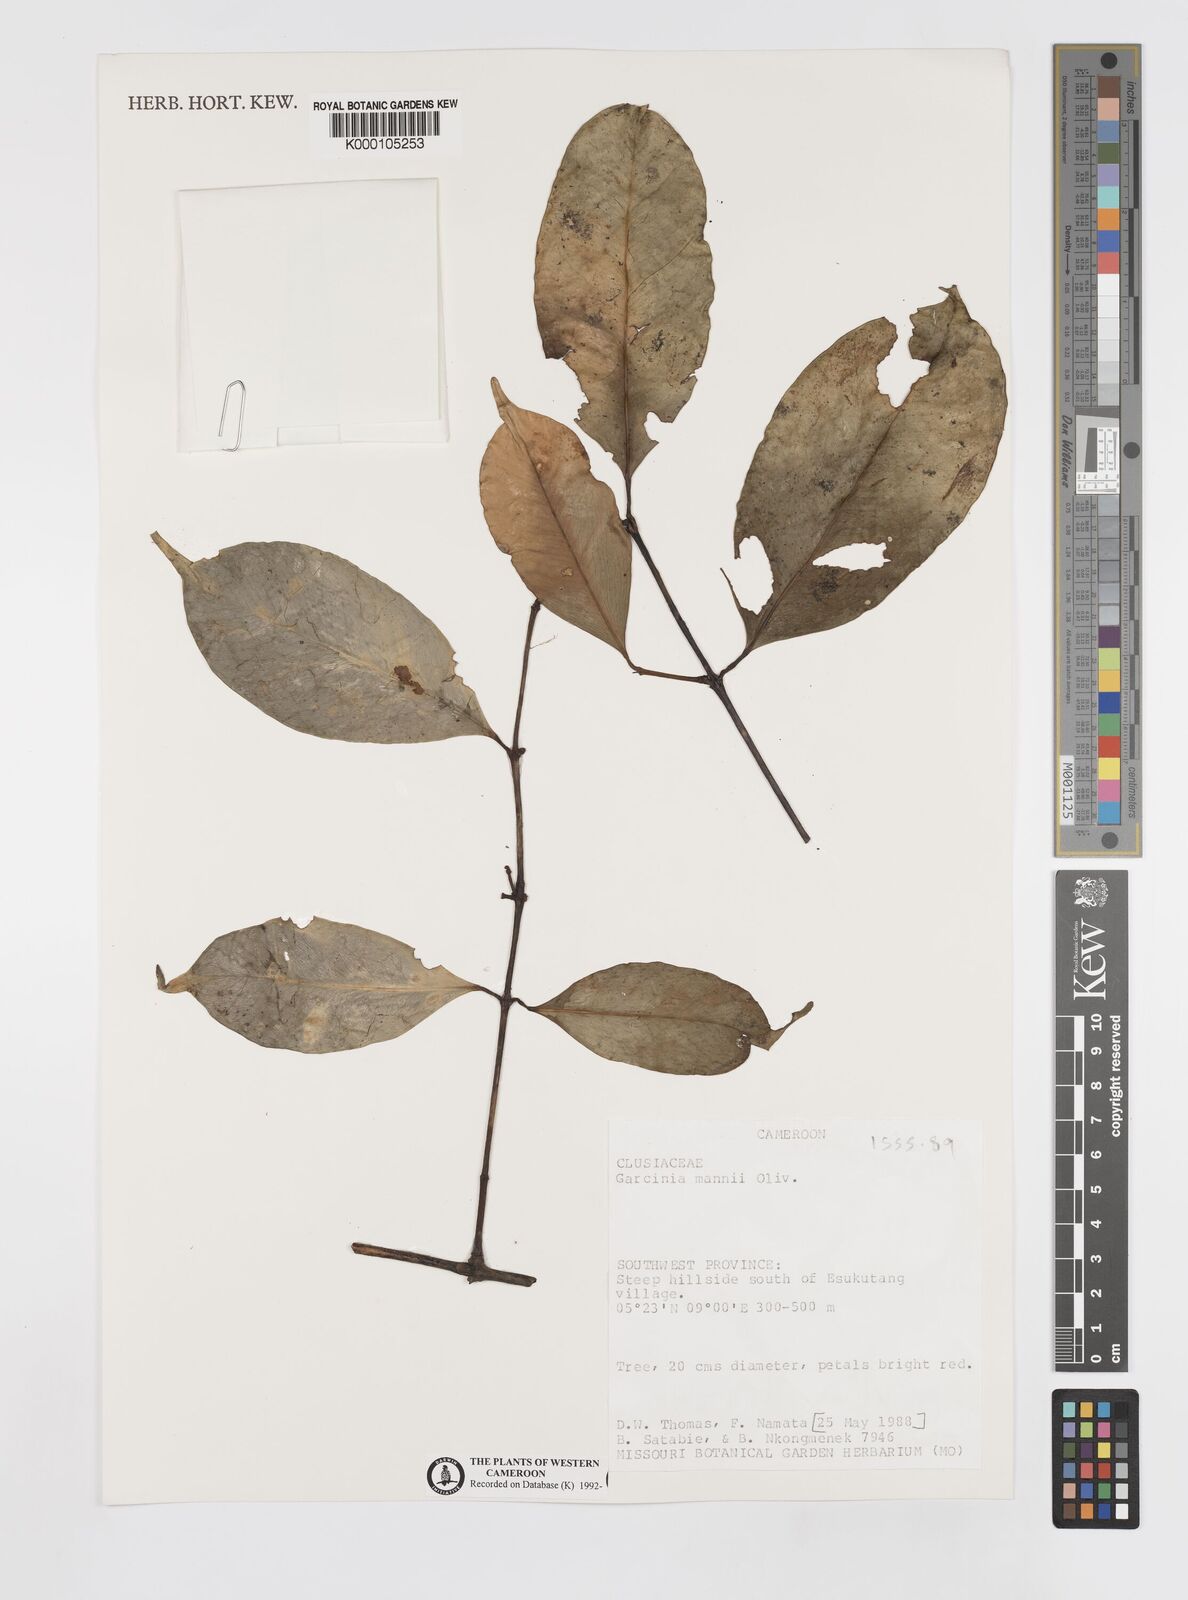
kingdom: Plantae
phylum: Tracheophyta
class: Magnoliopsida
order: Malpighiales
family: Clusiaceae
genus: Garcinia
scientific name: Garcinia mannii
